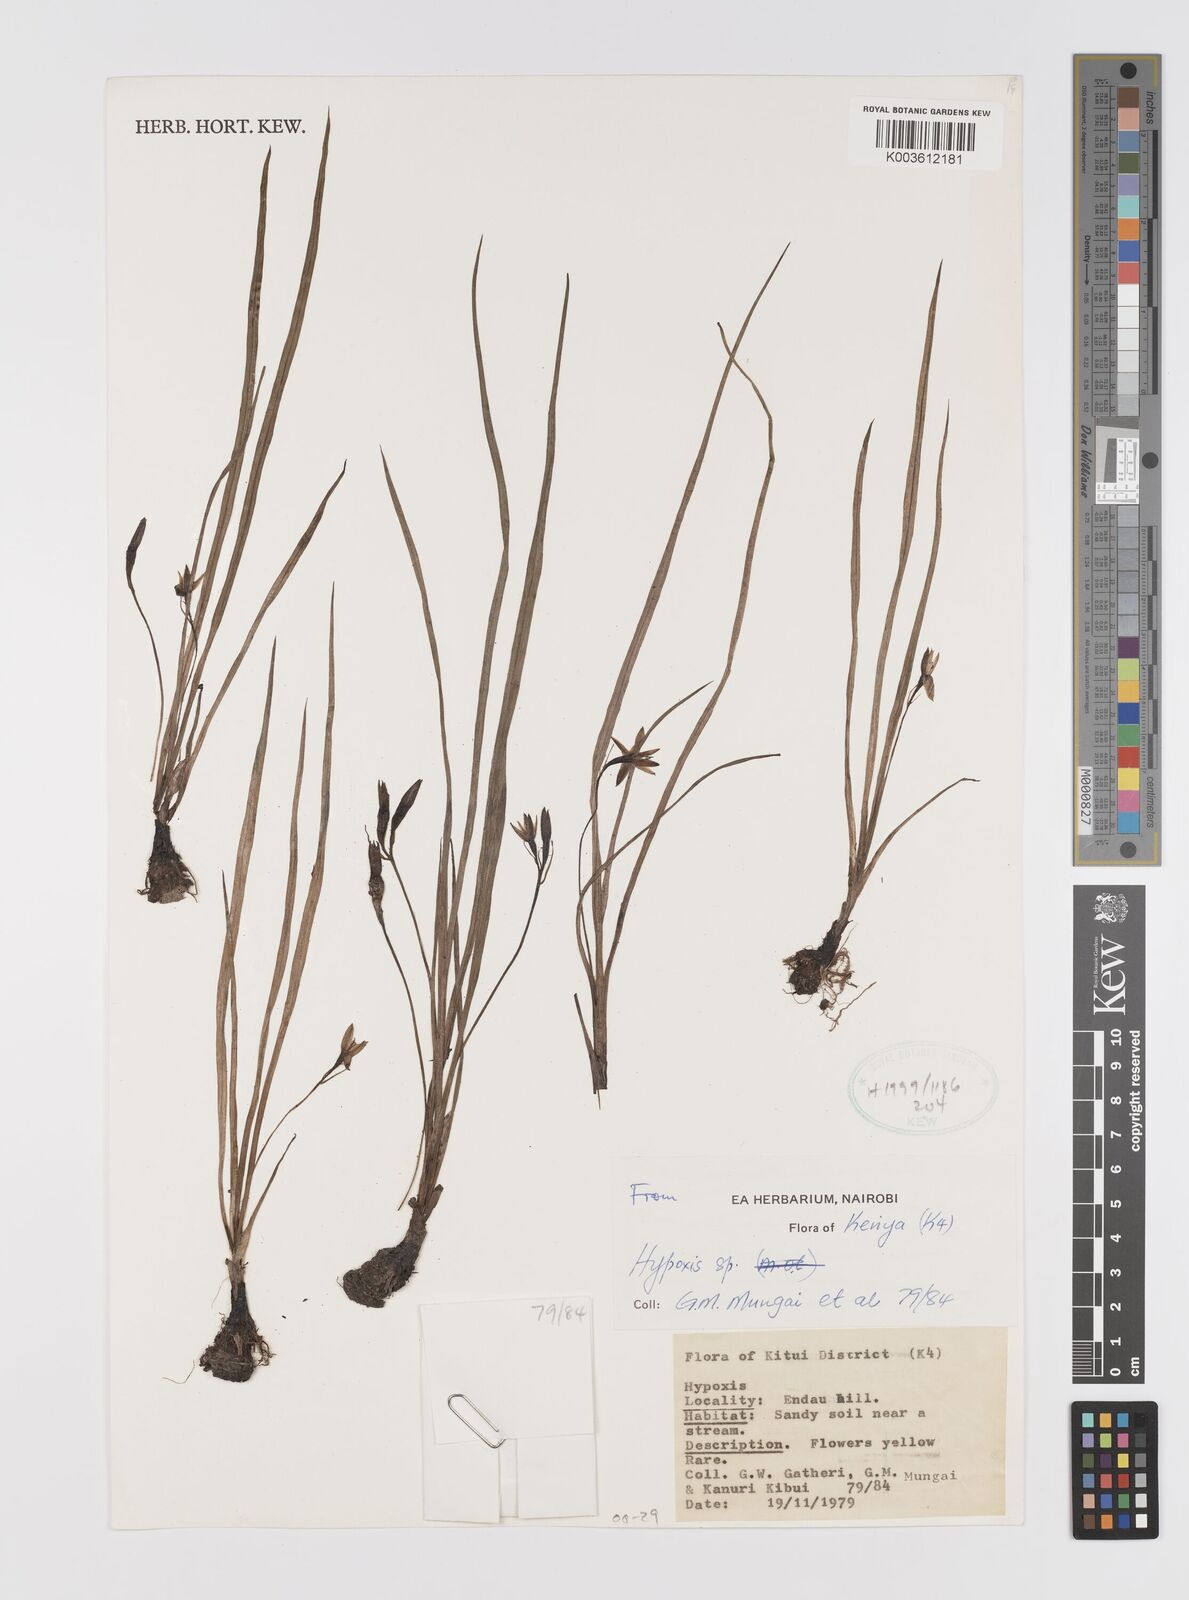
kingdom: Plantae
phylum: Tracheophyta
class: Liliopsida
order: Asparagales
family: Hypoxidaceae
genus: Hypoxis
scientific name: Hypoxis schimperi
